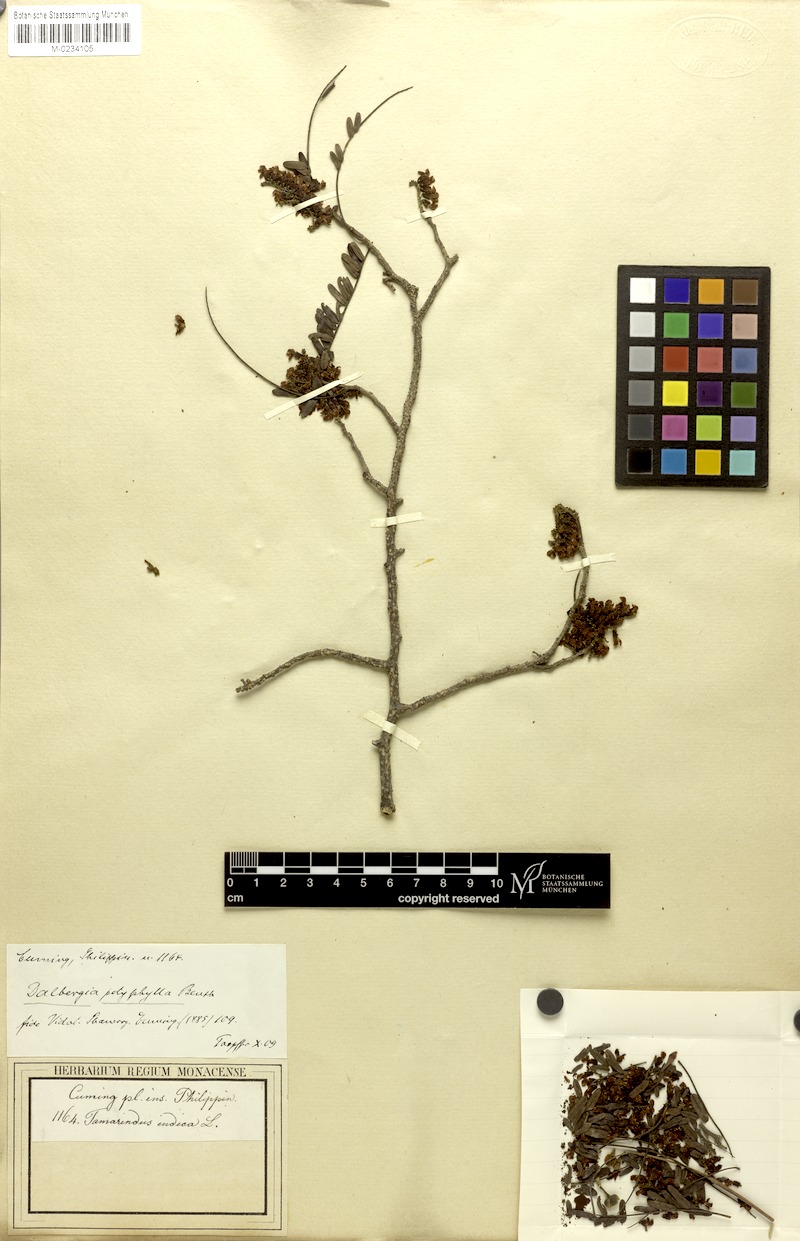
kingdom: Plantae
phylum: Tracheophyta
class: Magnoliopsida
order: Fabales
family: Fabaceae
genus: Dalbergia
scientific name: Dalbergia polyphylla
